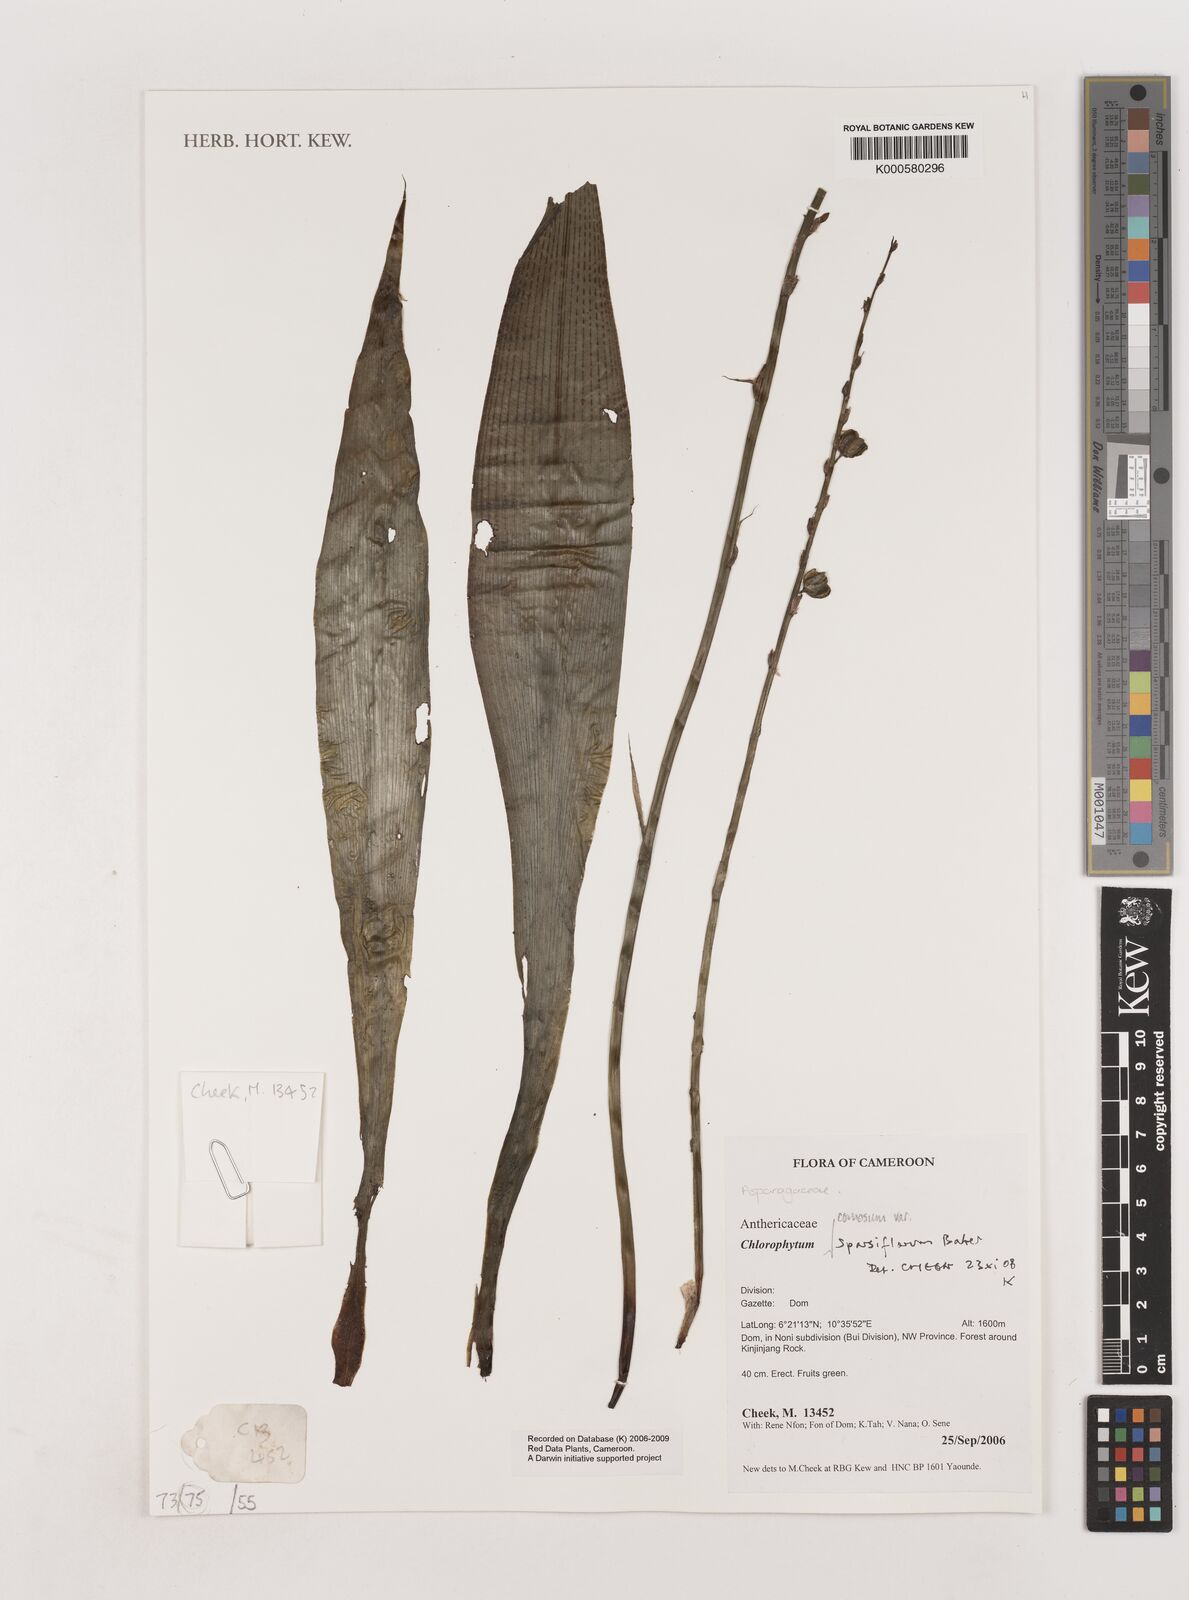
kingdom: Plantae
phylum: Tracheophyta
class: Liliopsida
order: Asparagales
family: Asparagaceae
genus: Chlorophytum
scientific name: Chlorophytum sparsiflorum
